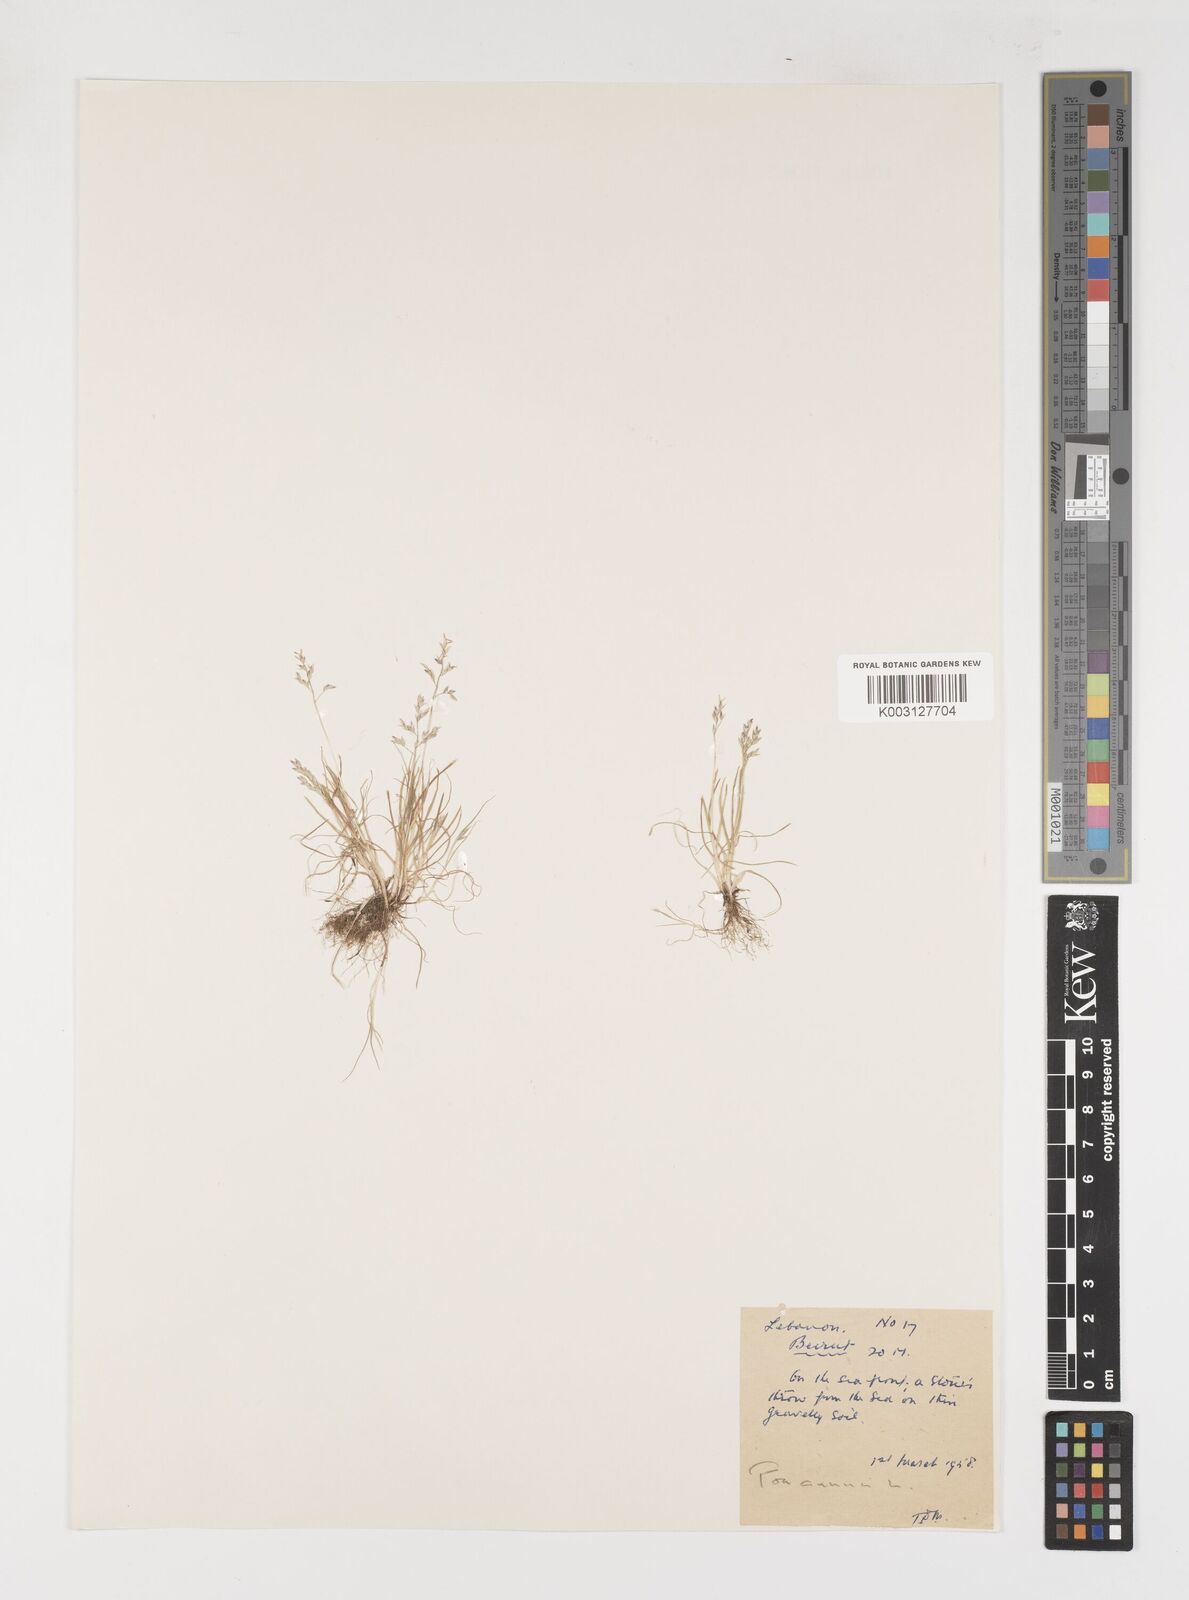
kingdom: Plantae
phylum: Tracheophyta
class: Liliopsida
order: Poales
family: Poaceae
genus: Poa
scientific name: Poa annua
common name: Annual bluegrass
